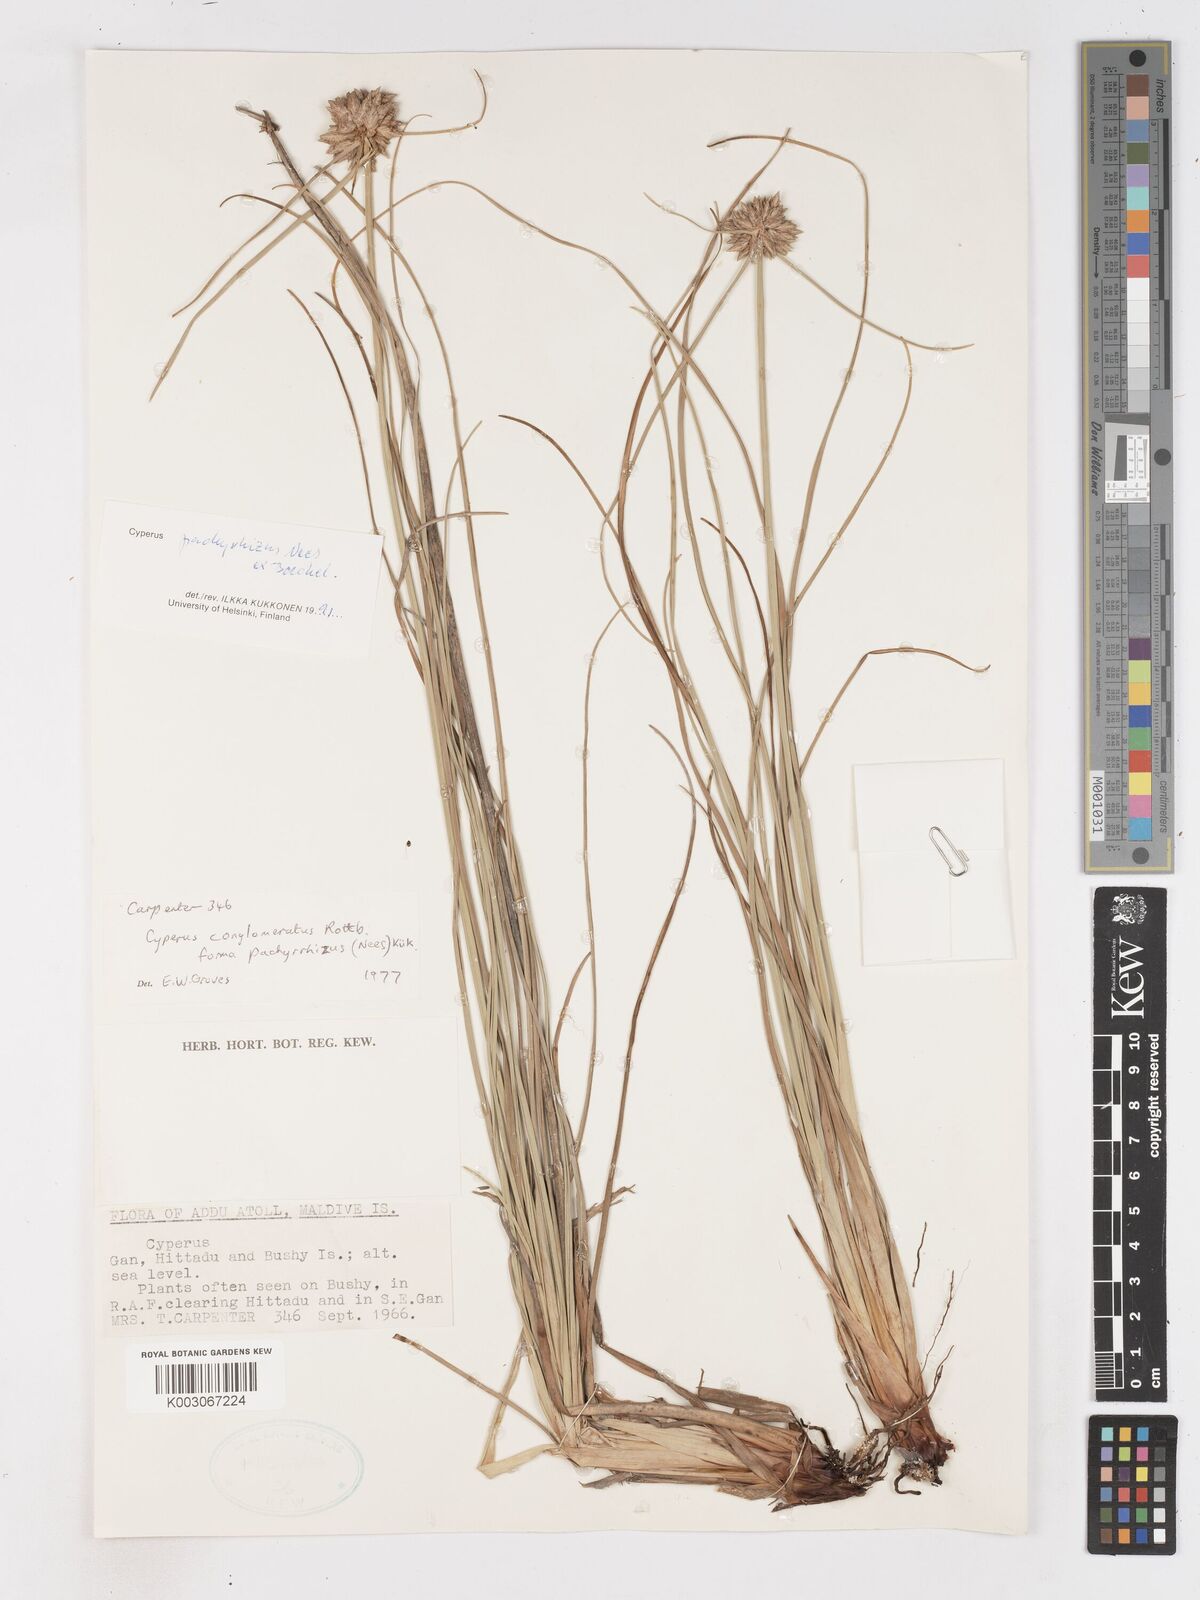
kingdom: Plantae
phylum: Tracheophyta
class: Liliopsida
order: Poales
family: Cyperaceae
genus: Cyperus
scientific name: Cyperus pachyrhizus
